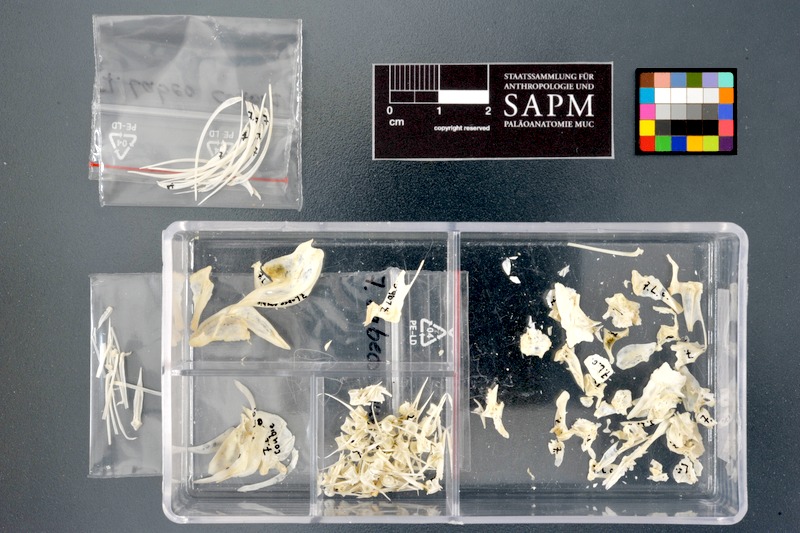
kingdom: Animalia
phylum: Chordata
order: Cypriniformes
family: Cyprinidae
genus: Labeo
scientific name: Labeo coubie
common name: African carp
